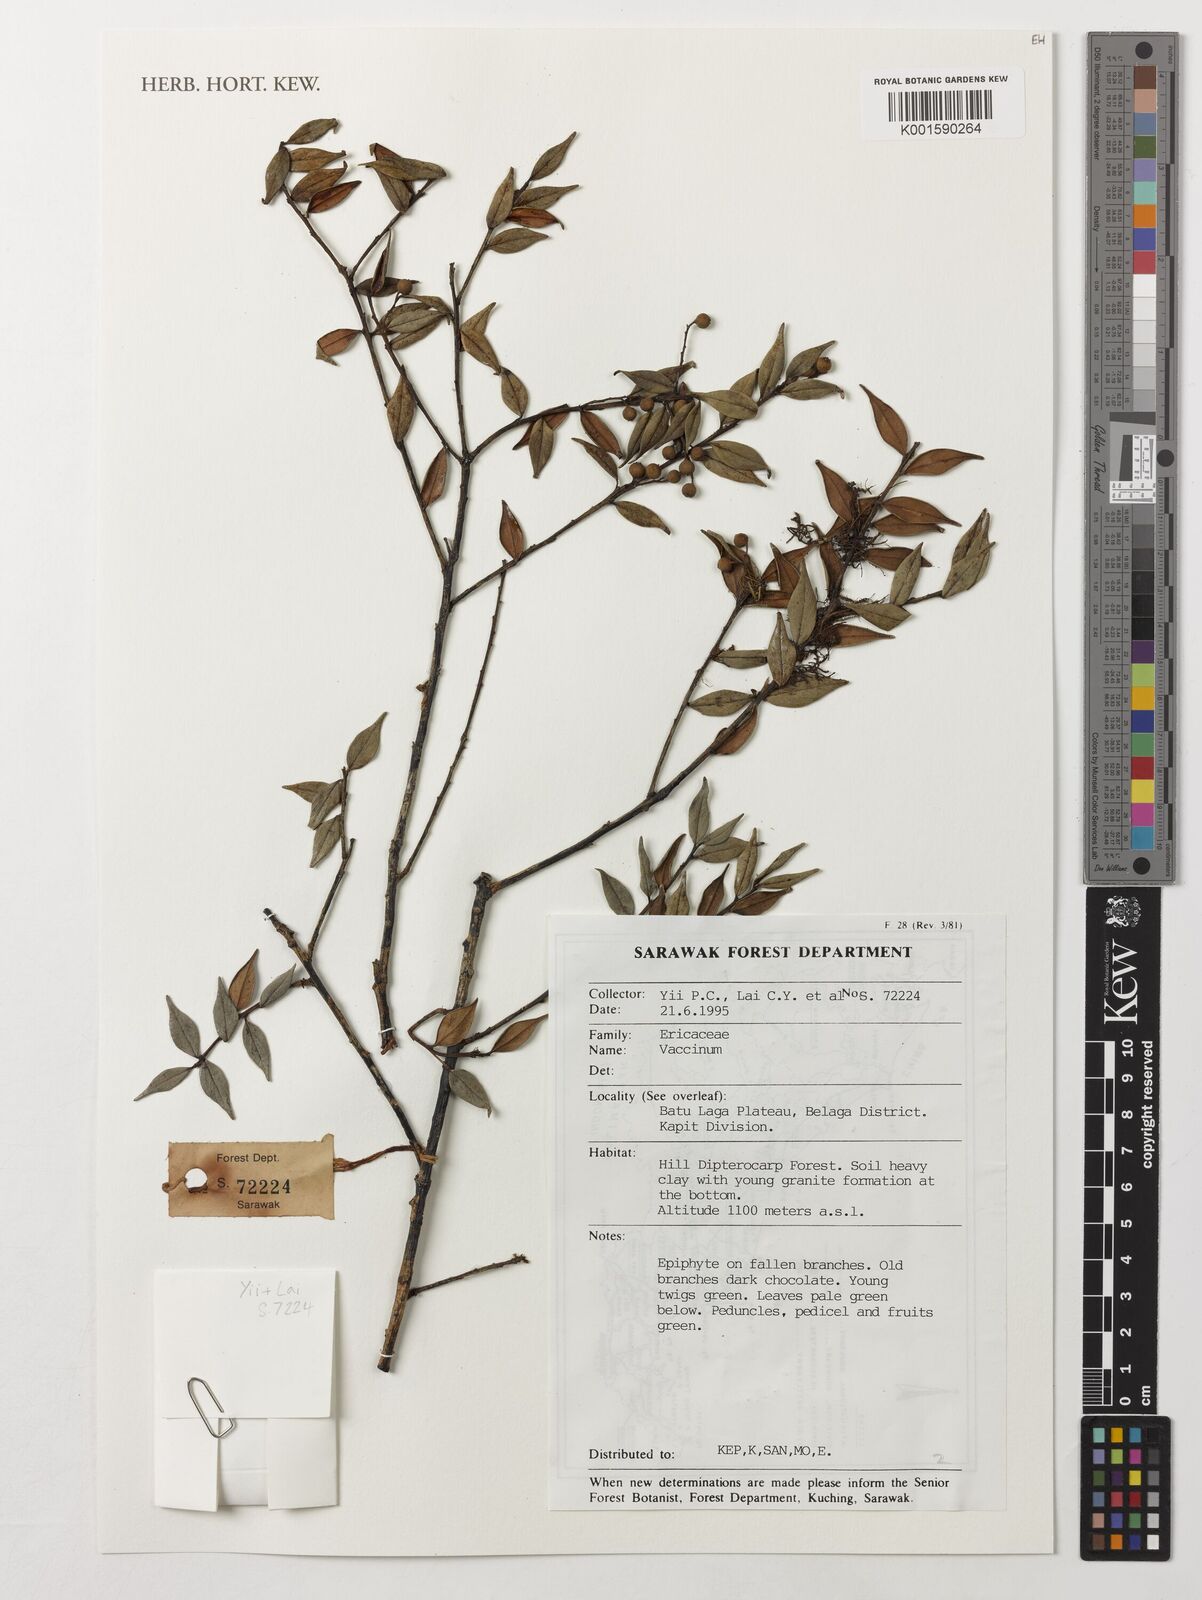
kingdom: Plantae
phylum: Tracheophyta
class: Magnoliopsida
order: Ericales
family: Ericaceae
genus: Vaccinium
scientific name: Vaccinium
